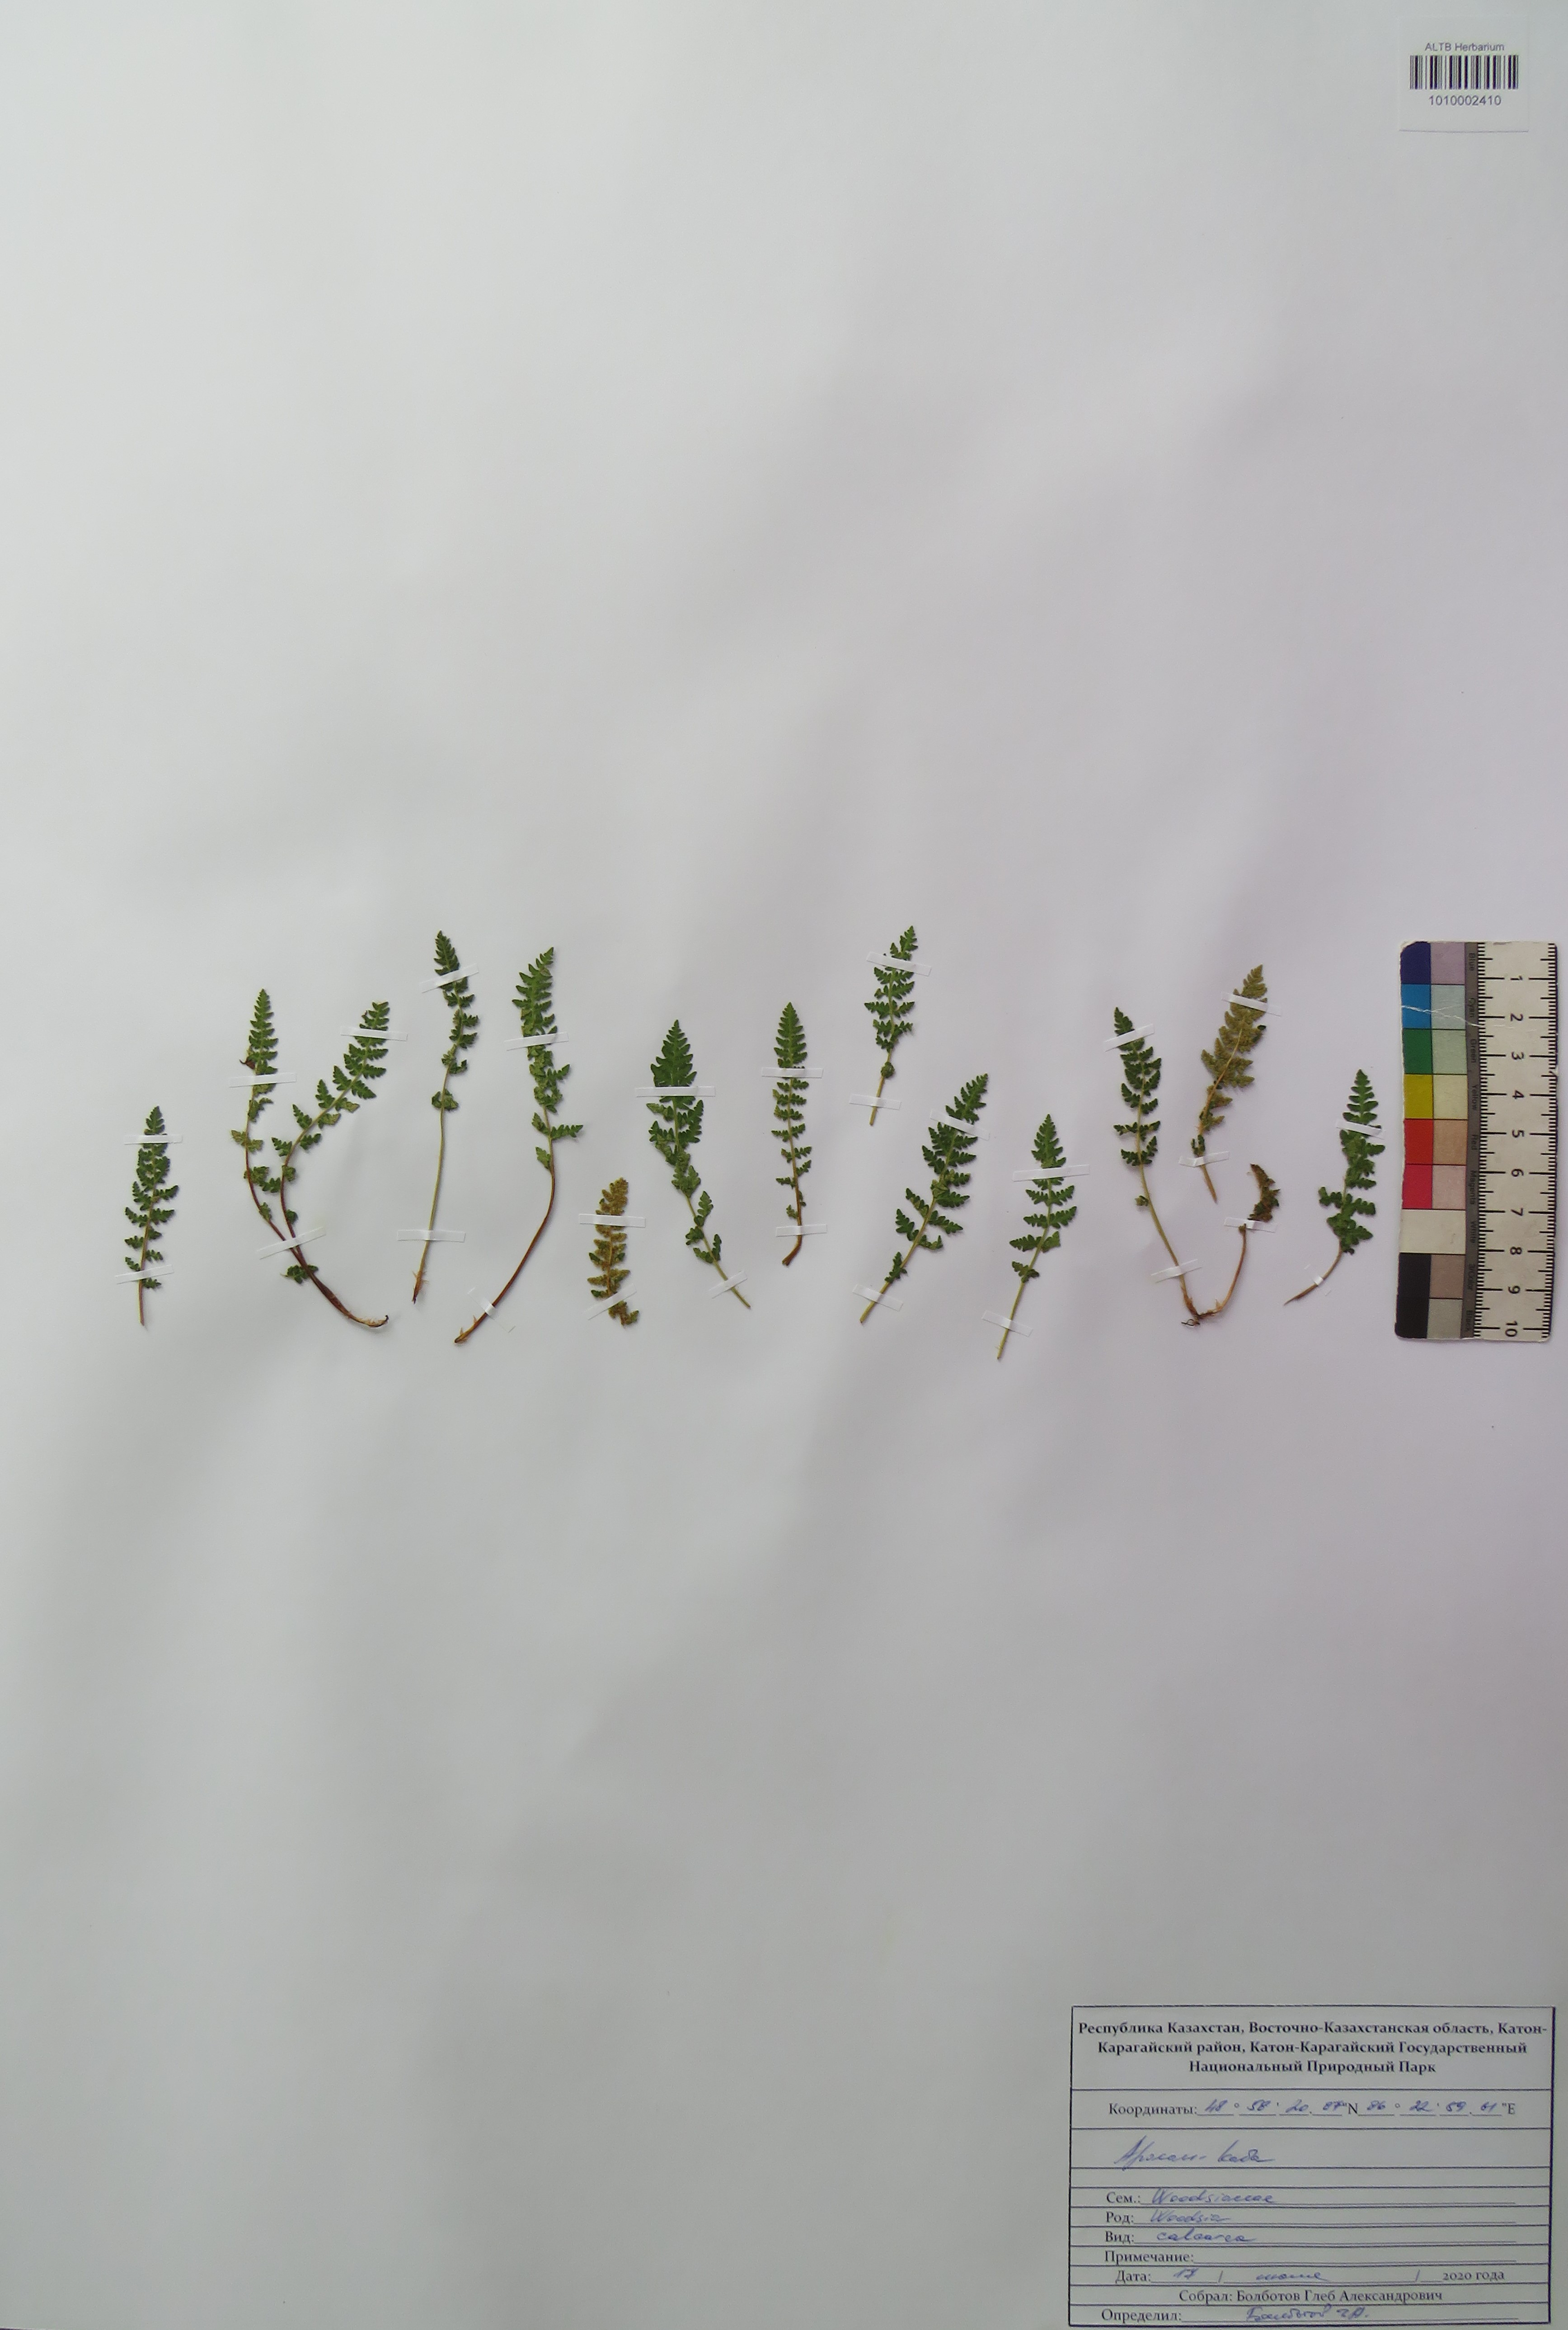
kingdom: Plantae
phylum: Tracheophyta
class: Polypodiopsida
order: Polypodiales
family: Woodsiaceae
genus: Woodsia
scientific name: Woodsia calcarea
